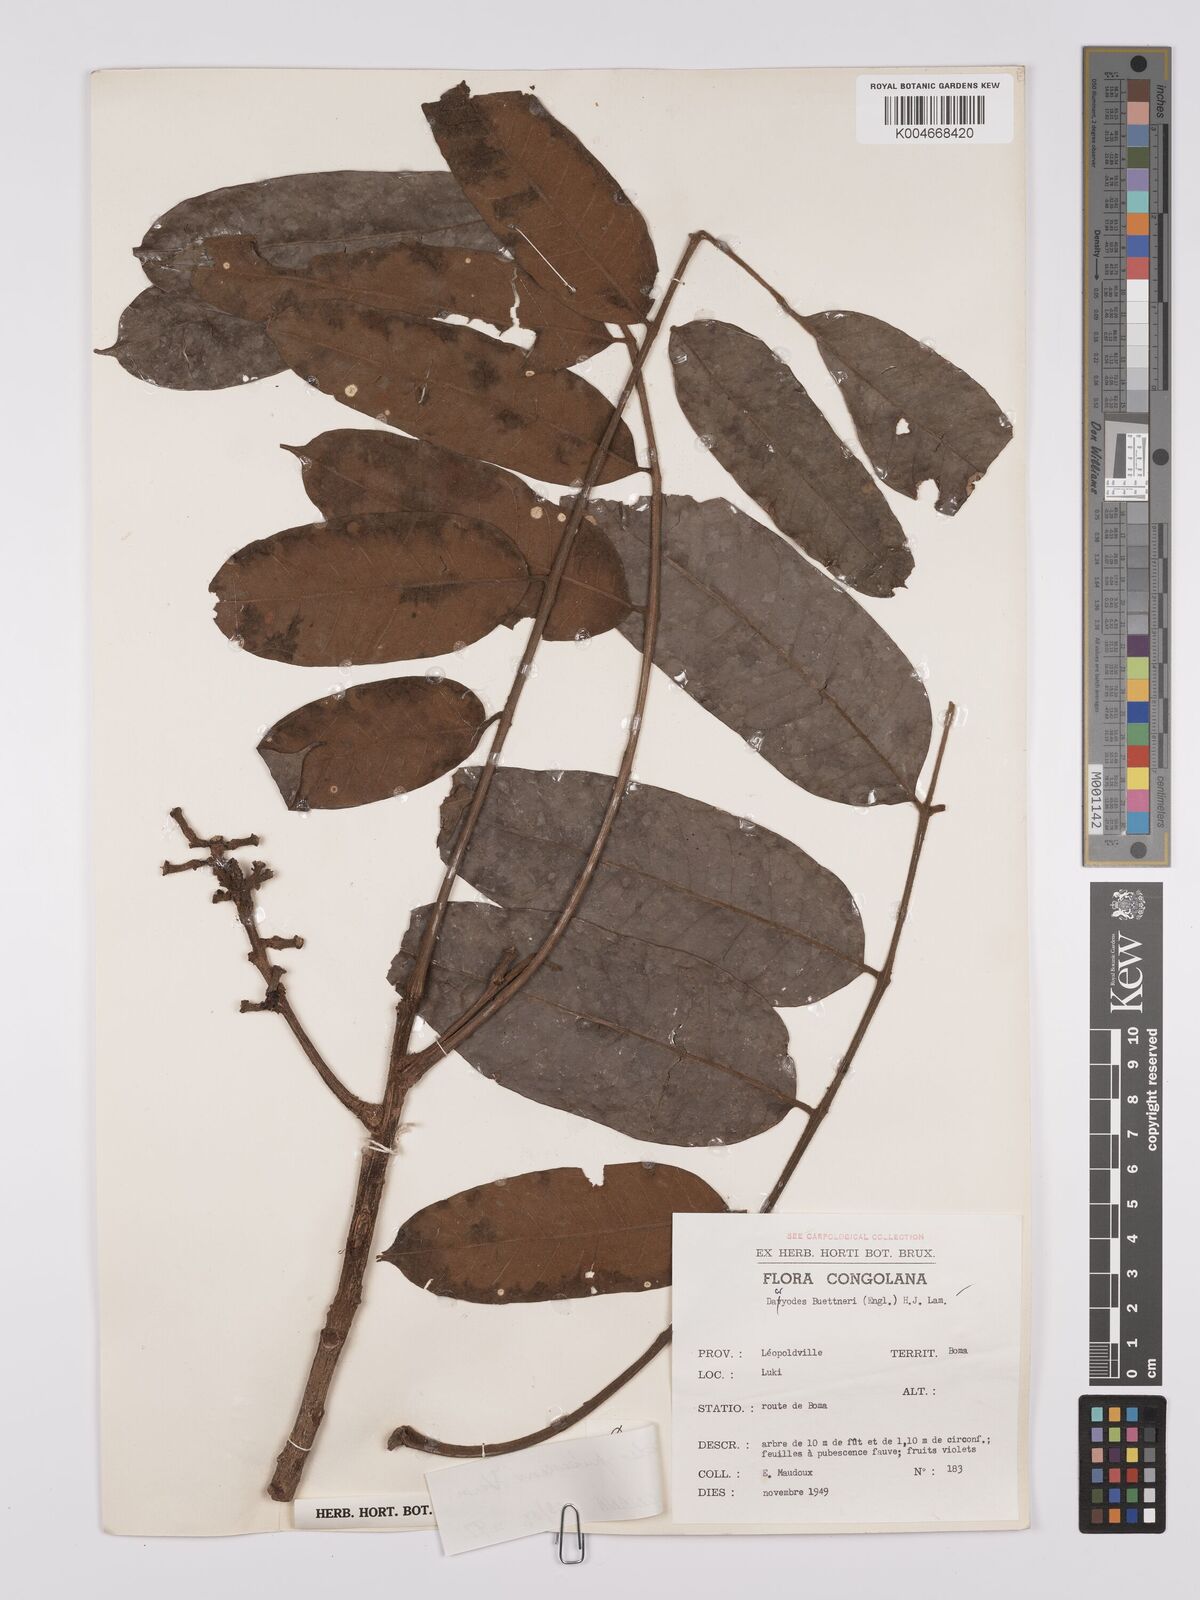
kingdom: Plantae
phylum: Tracheophyta
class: Magnoliopsida
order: Sapindales
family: Burseraceae
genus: Pachylobus
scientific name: Pachylobus pubescens
